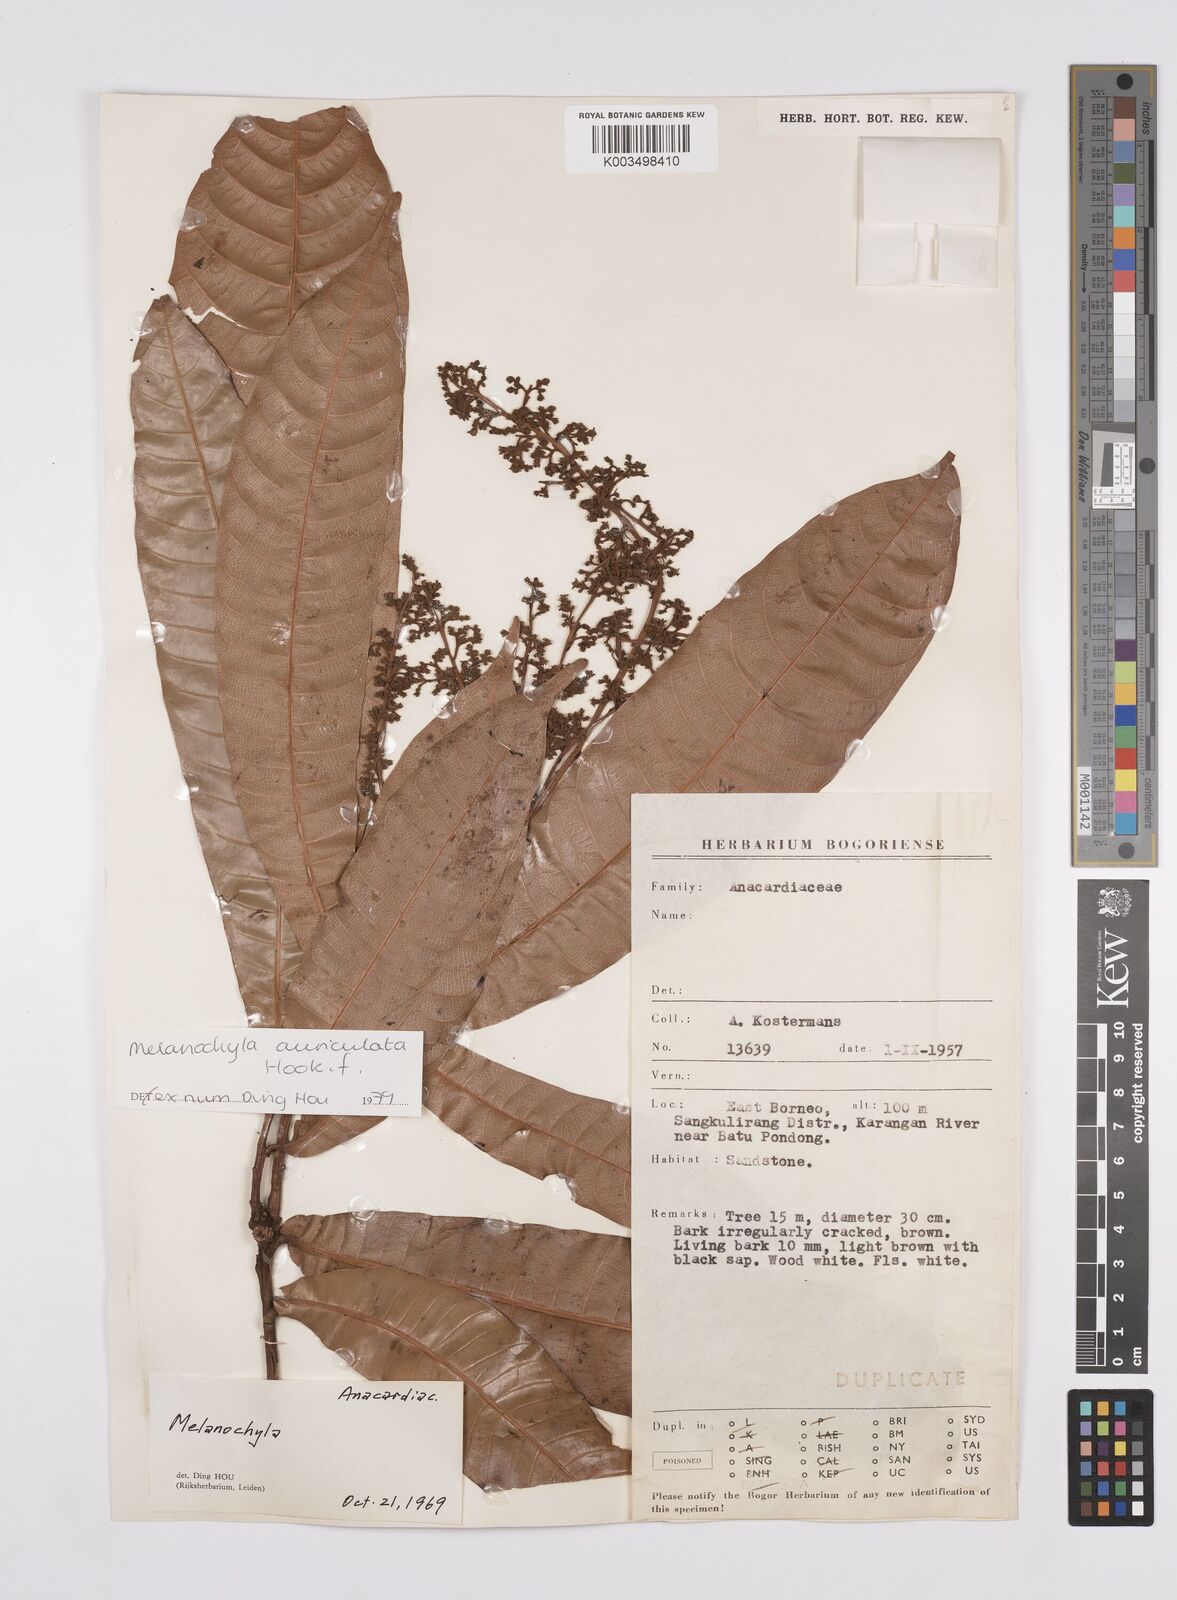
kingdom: Plantae
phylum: Tracheophyta
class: Magnoliopsida
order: Sapindales
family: Anacardiaceae
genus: Melanochyla
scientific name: Melanochyla auriculata
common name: Swamp rengas
